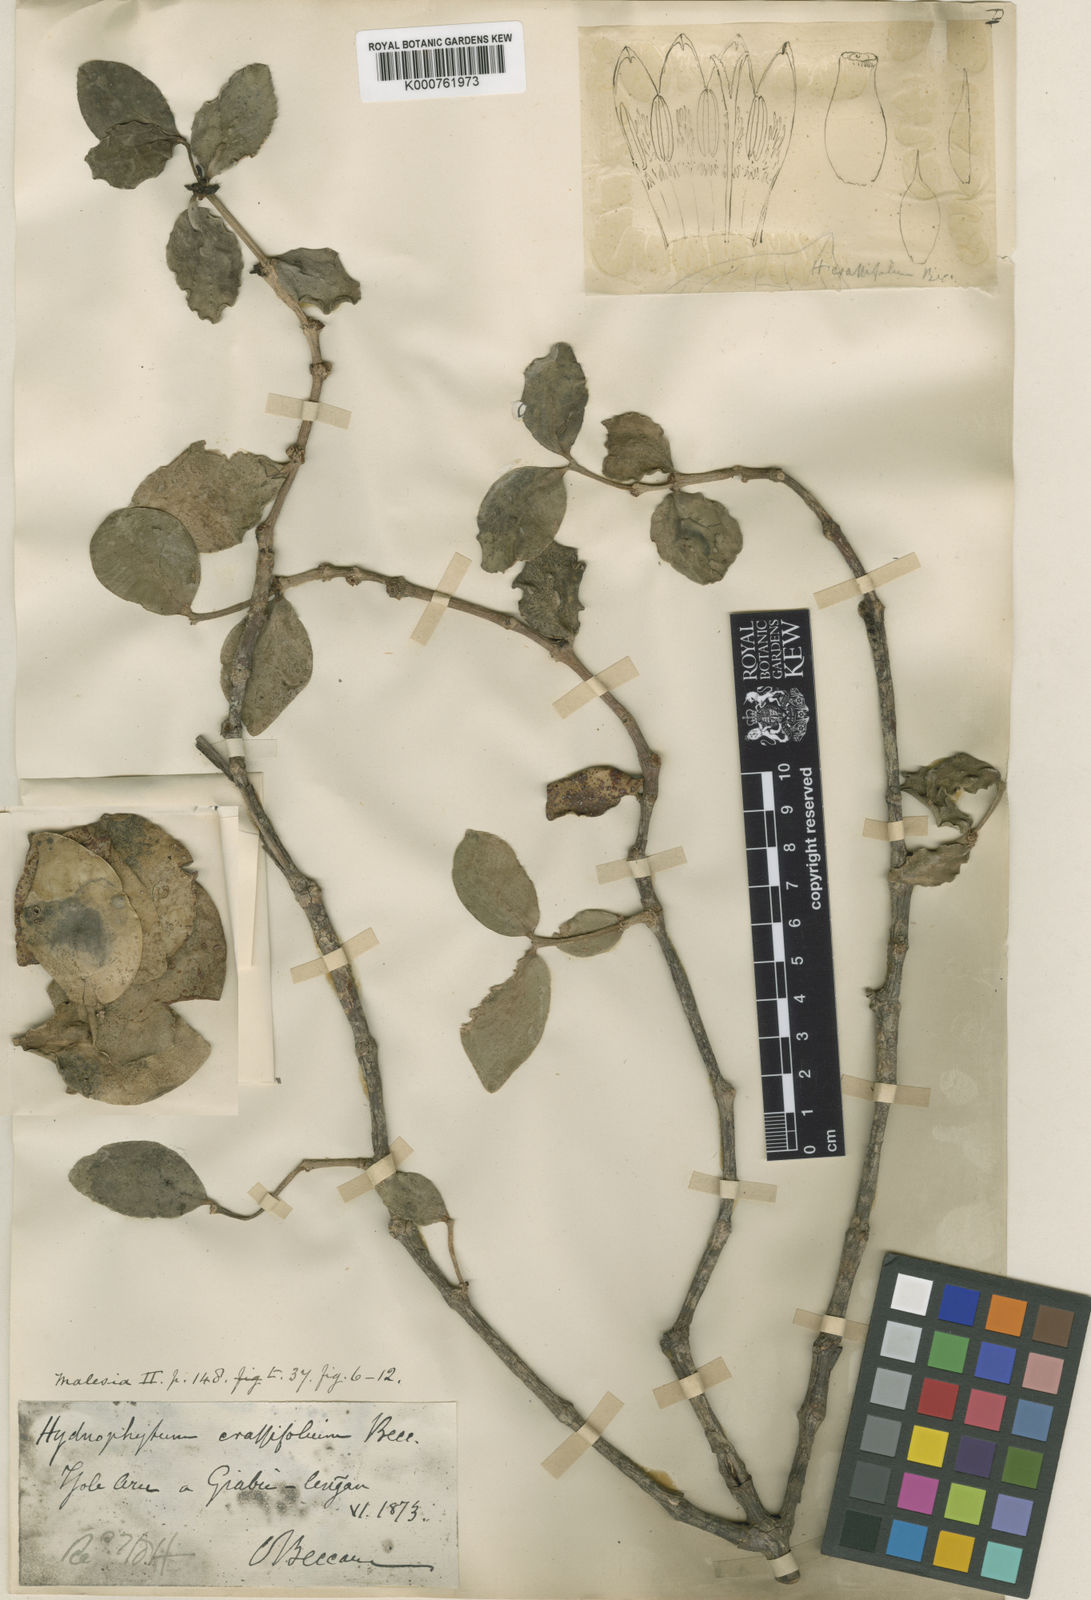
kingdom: Plantae
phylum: Tracheophyta
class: Magnoliopsida
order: Gentianales
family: Rubiaceae
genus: Hydnophytum
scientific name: Hydnophytum moseleyanum
